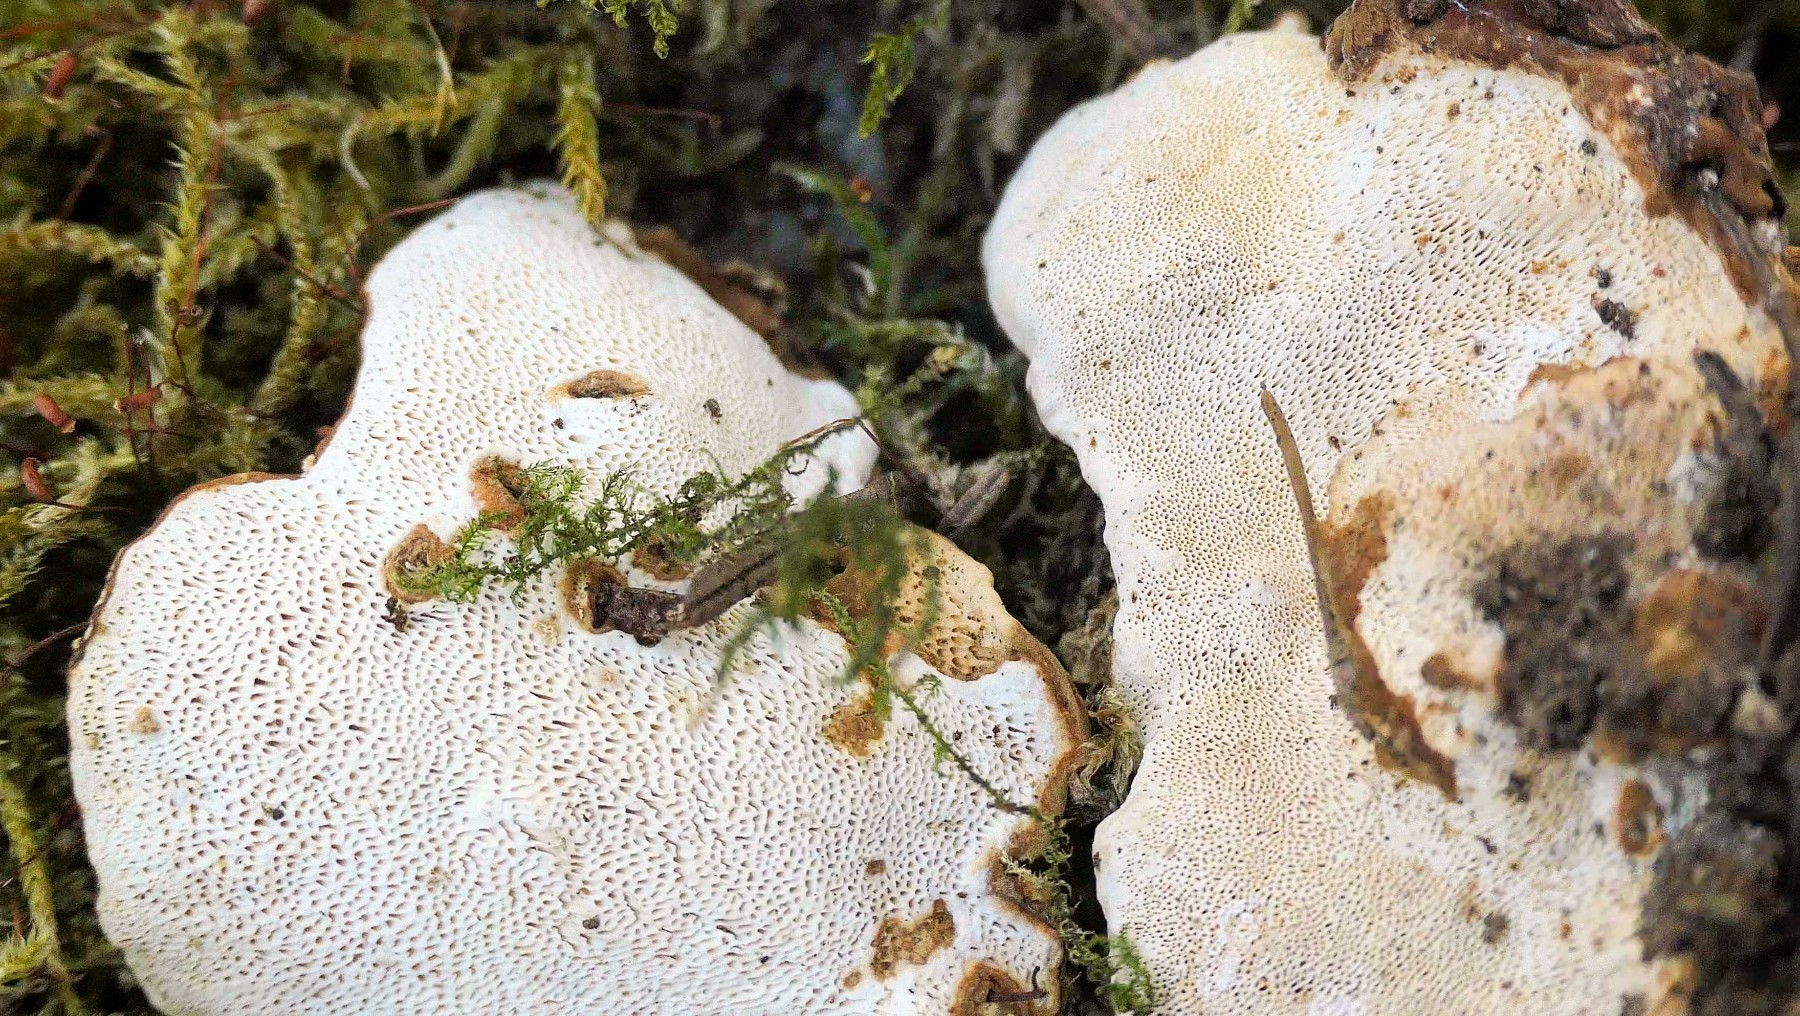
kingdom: Fungi
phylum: Basidiomycota
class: Agaricomycetes
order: Russulales
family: Bondarzewiaceae
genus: Heterobasidion
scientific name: Heterobasidion parviporum
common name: småporet rodfordærver
